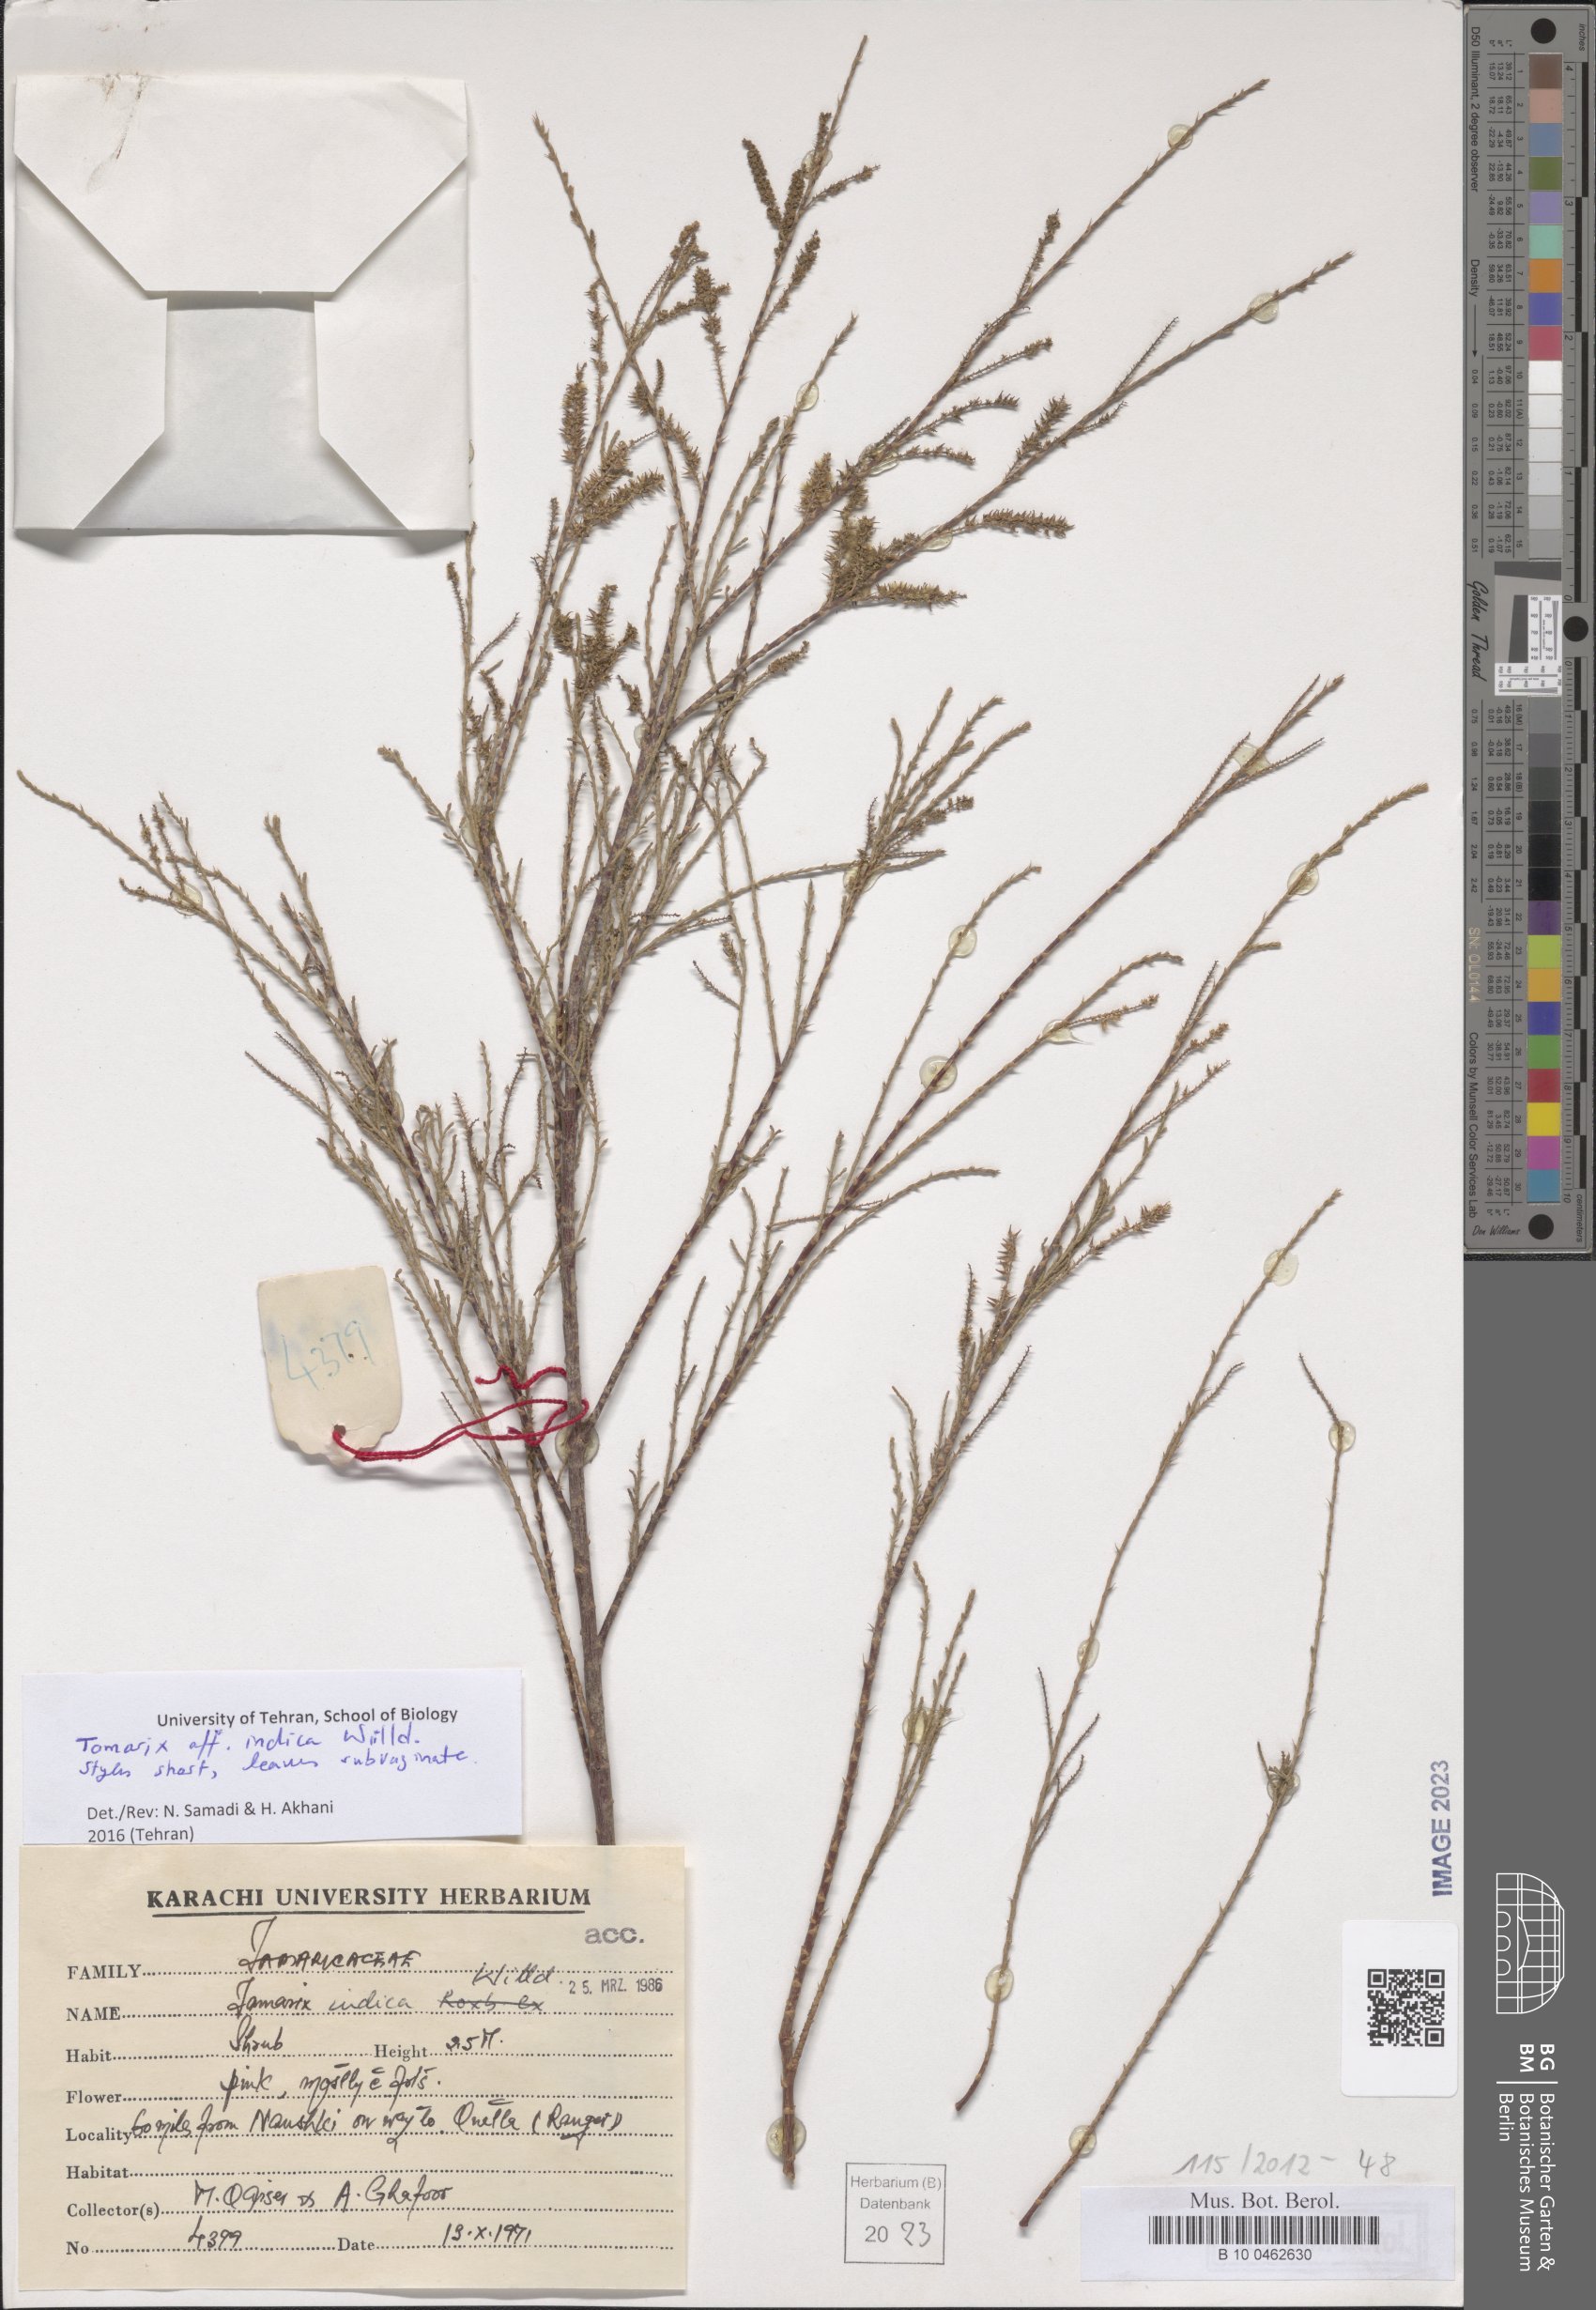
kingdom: Plantae
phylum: Tracheophyta
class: Magnoliopsida
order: Caryophyllales
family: Tamaricaceae
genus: Tamarix
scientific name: Tamarix indica
